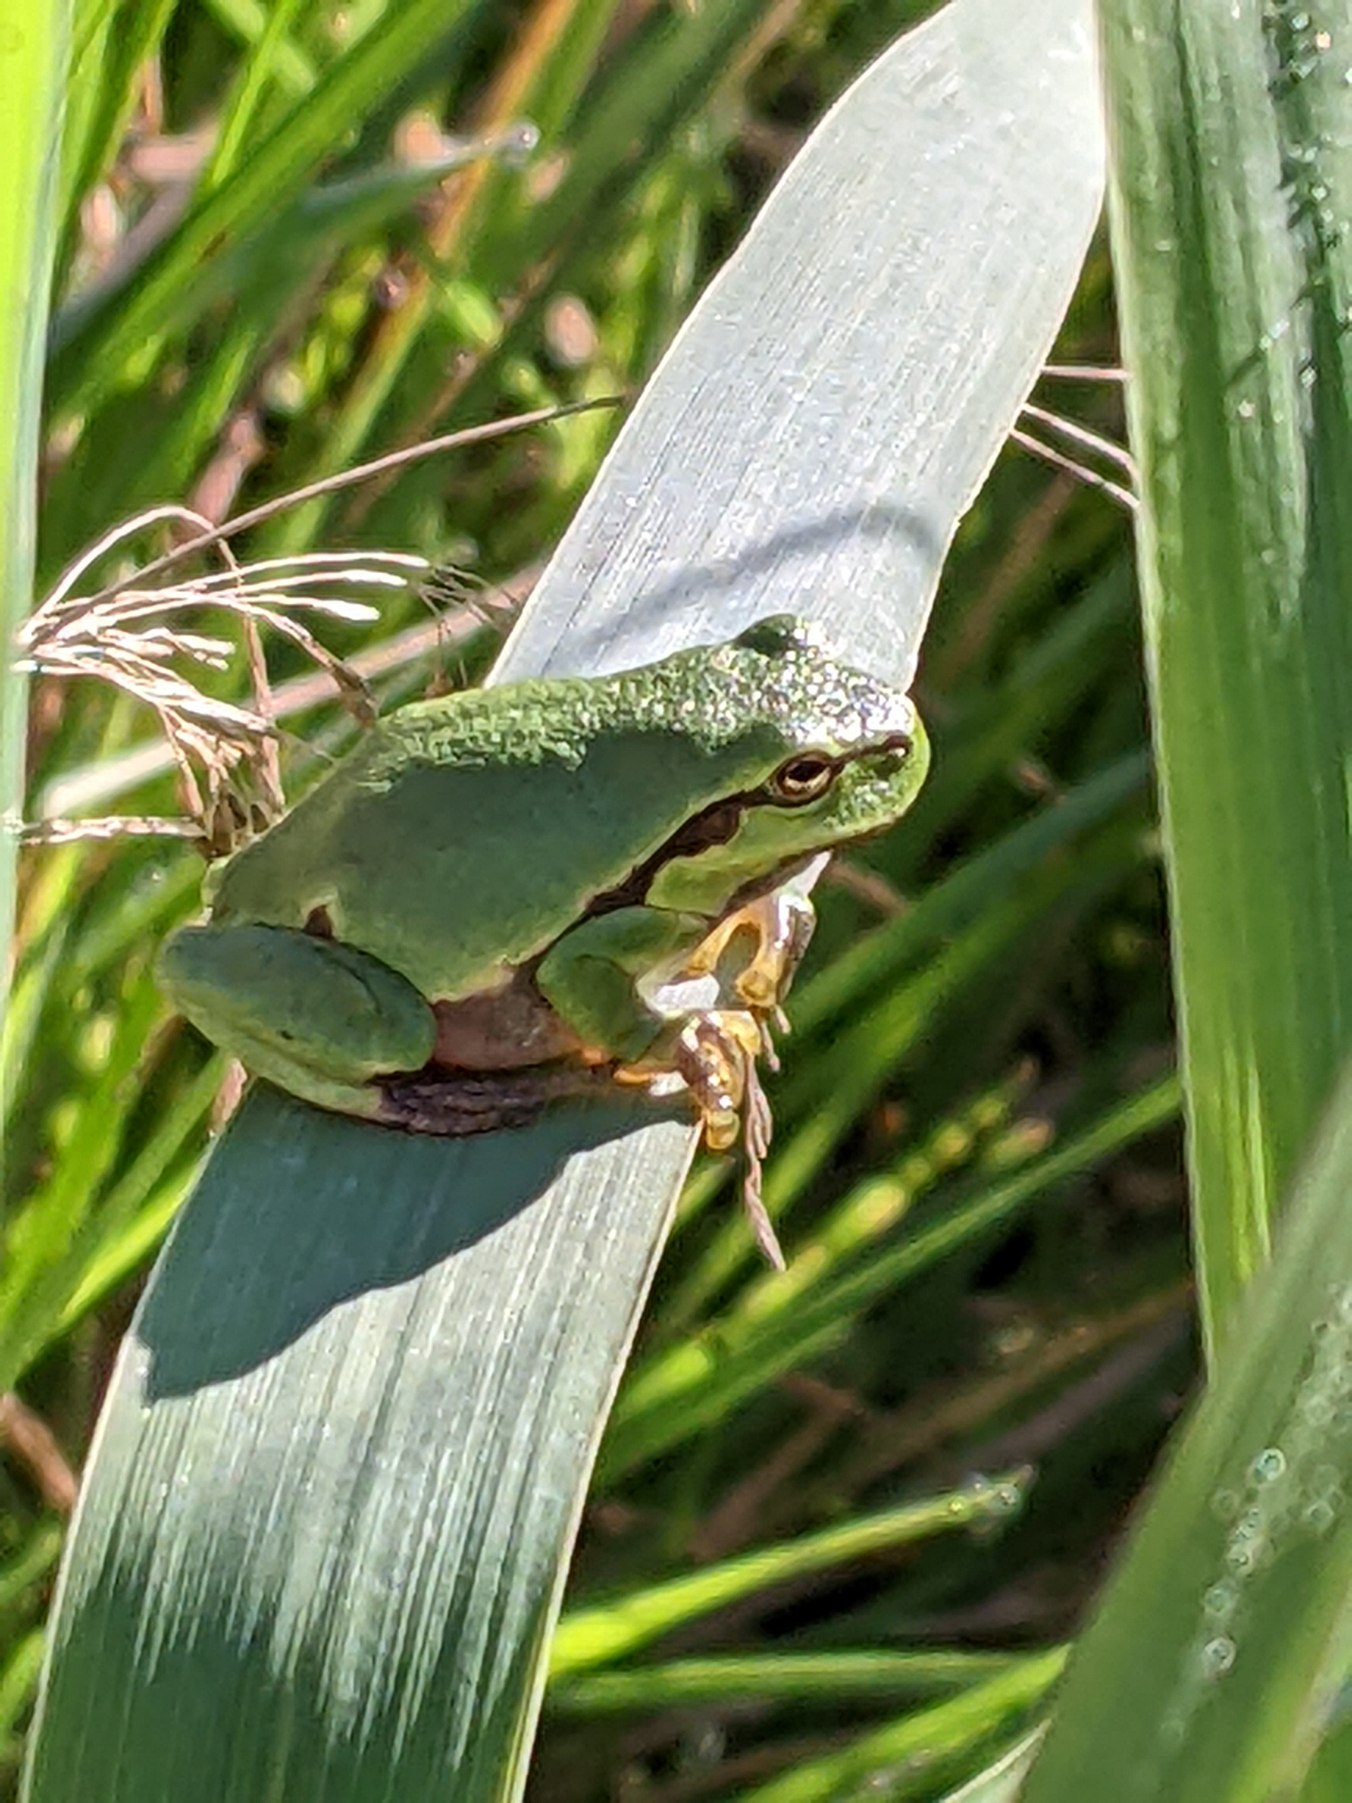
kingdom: Animalia
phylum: Chordata
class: Amphibia
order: Anura
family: Hylidae
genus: Hyla
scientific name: Hyla arborea
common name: Løvfrø
